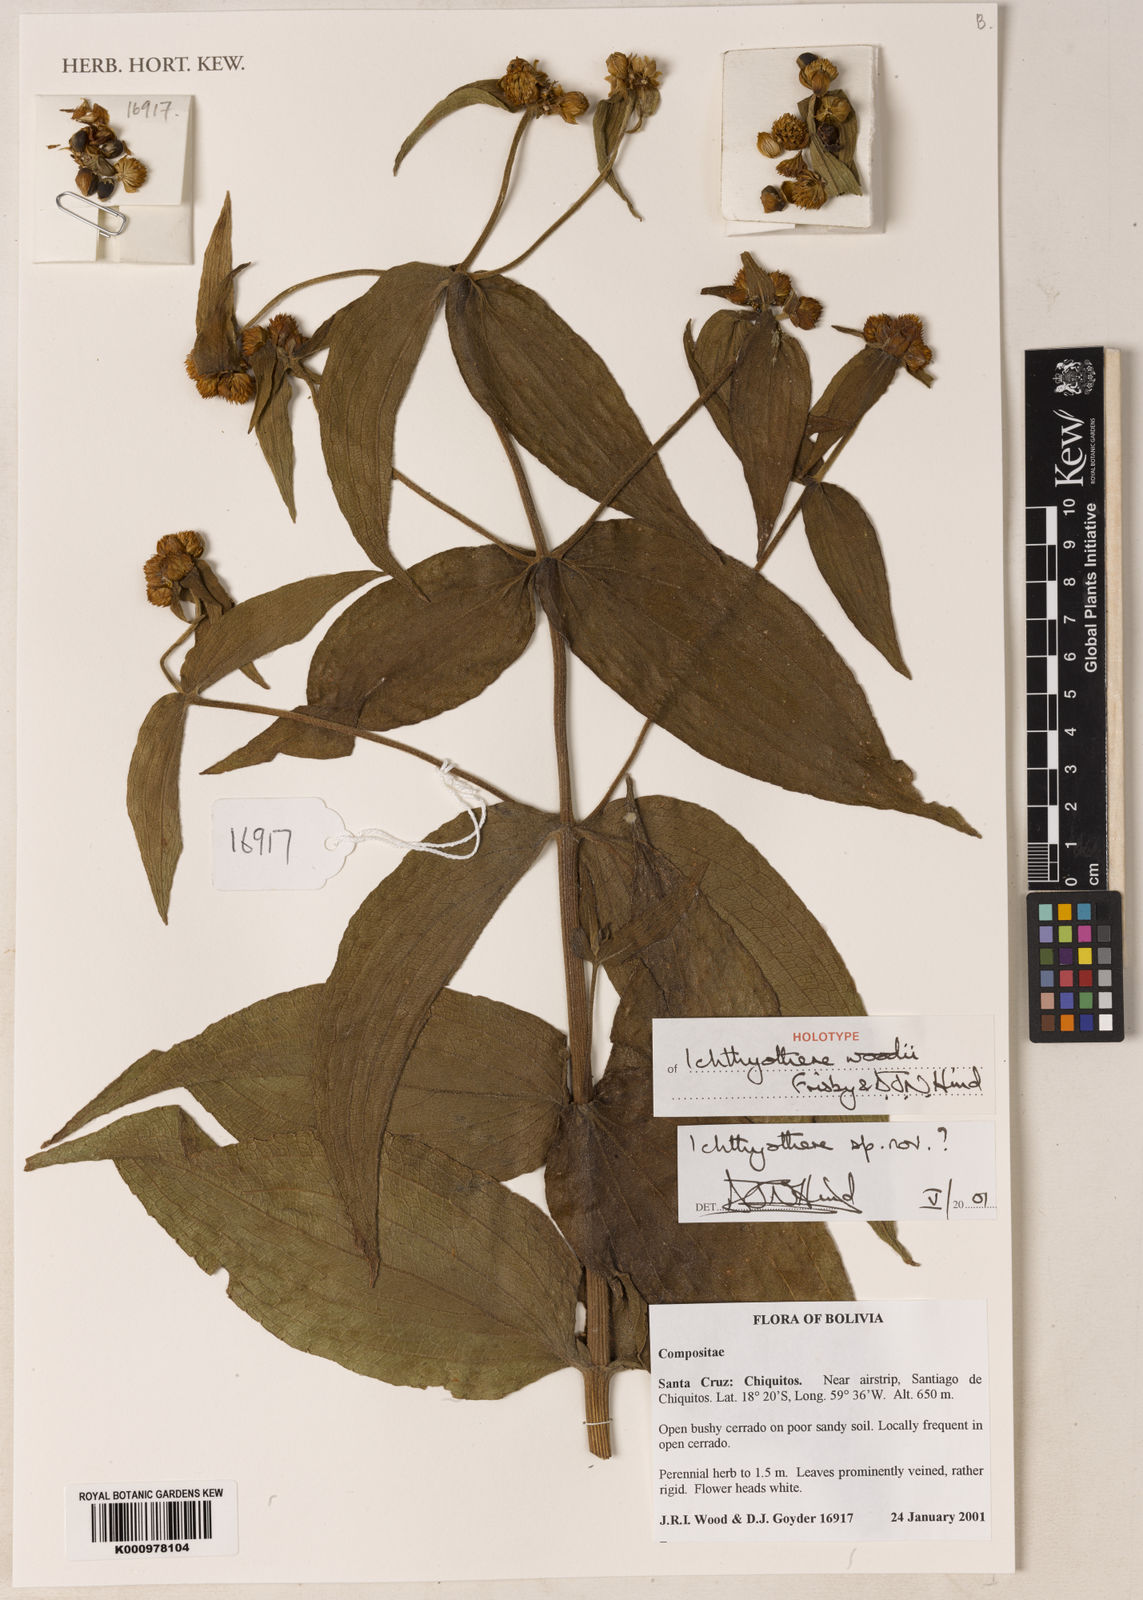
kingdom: Plantae
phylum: Tracheophyta
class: Magnoliopsida
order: Asterales
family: Asteraceae
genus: Ichthyothere
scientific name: Ichthyothere woodii
